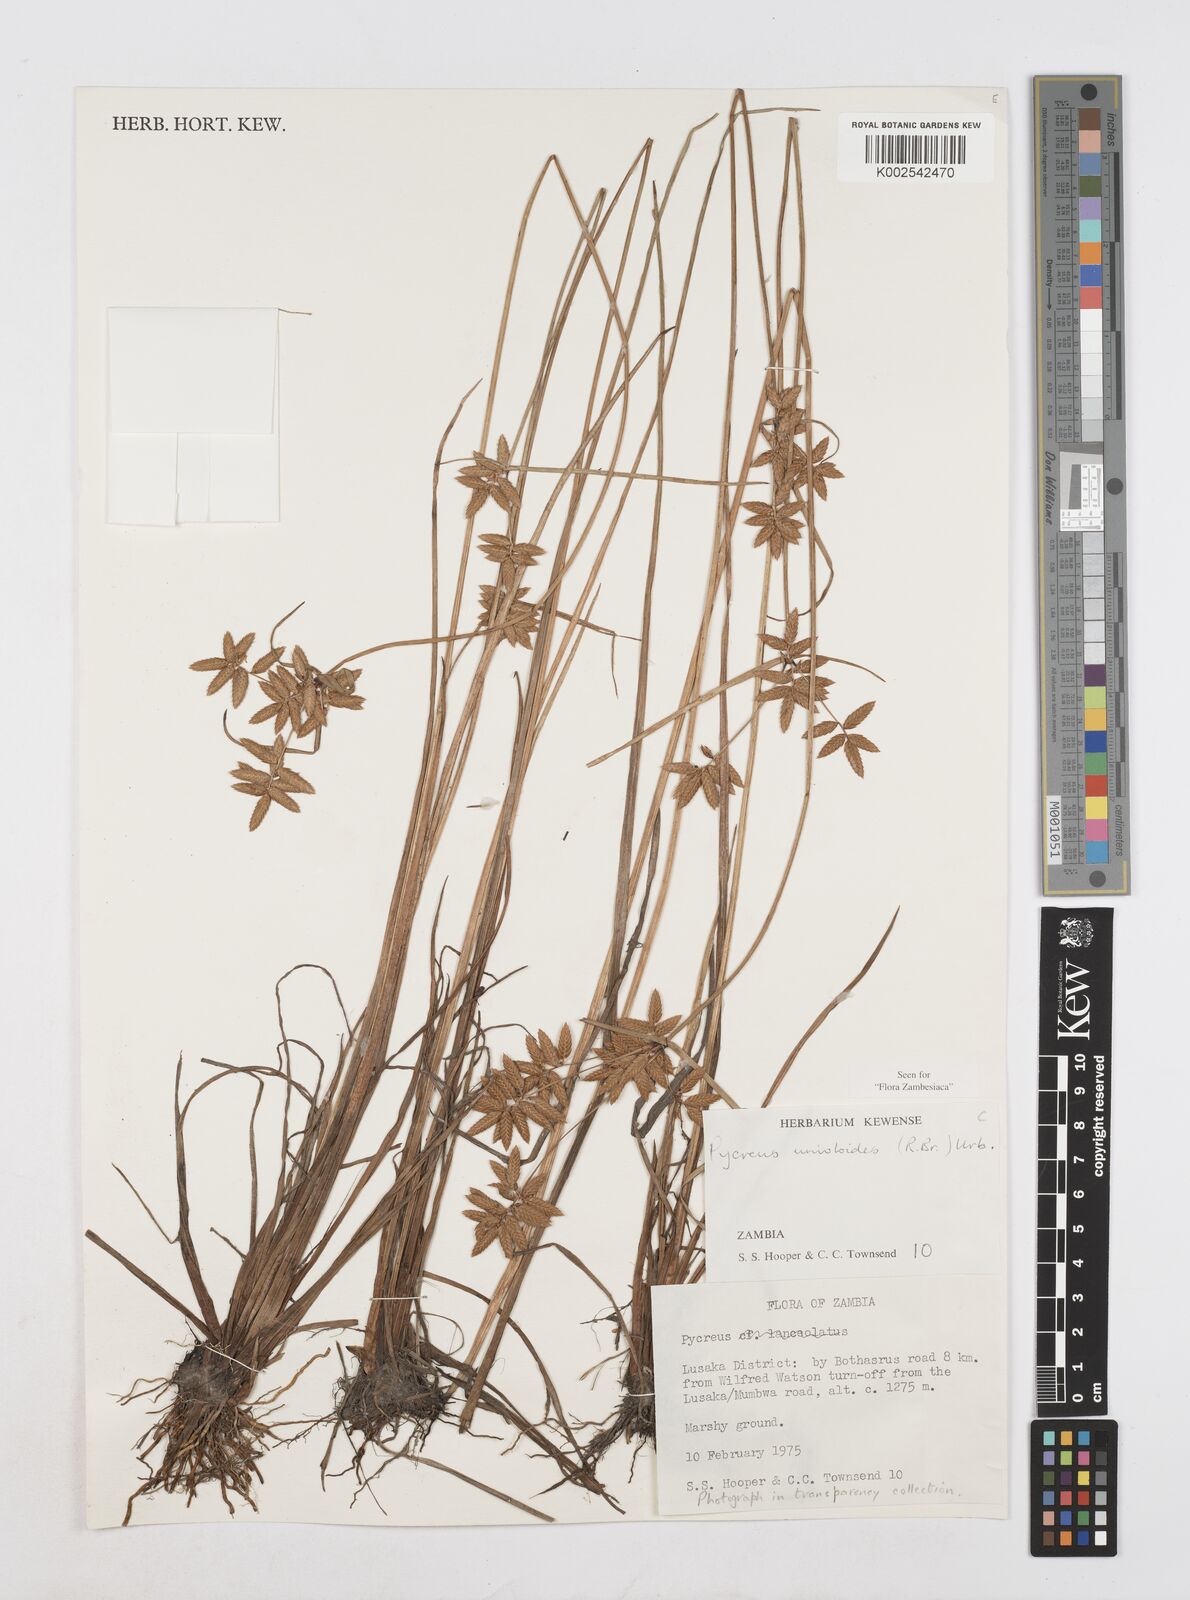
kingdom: Plantae
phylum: Tracheophyta
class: Liliopsida
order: Poales
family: Cyperaceae
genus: Cyperus
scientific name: Cyperus unioloides
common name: Uniola flatsedge
